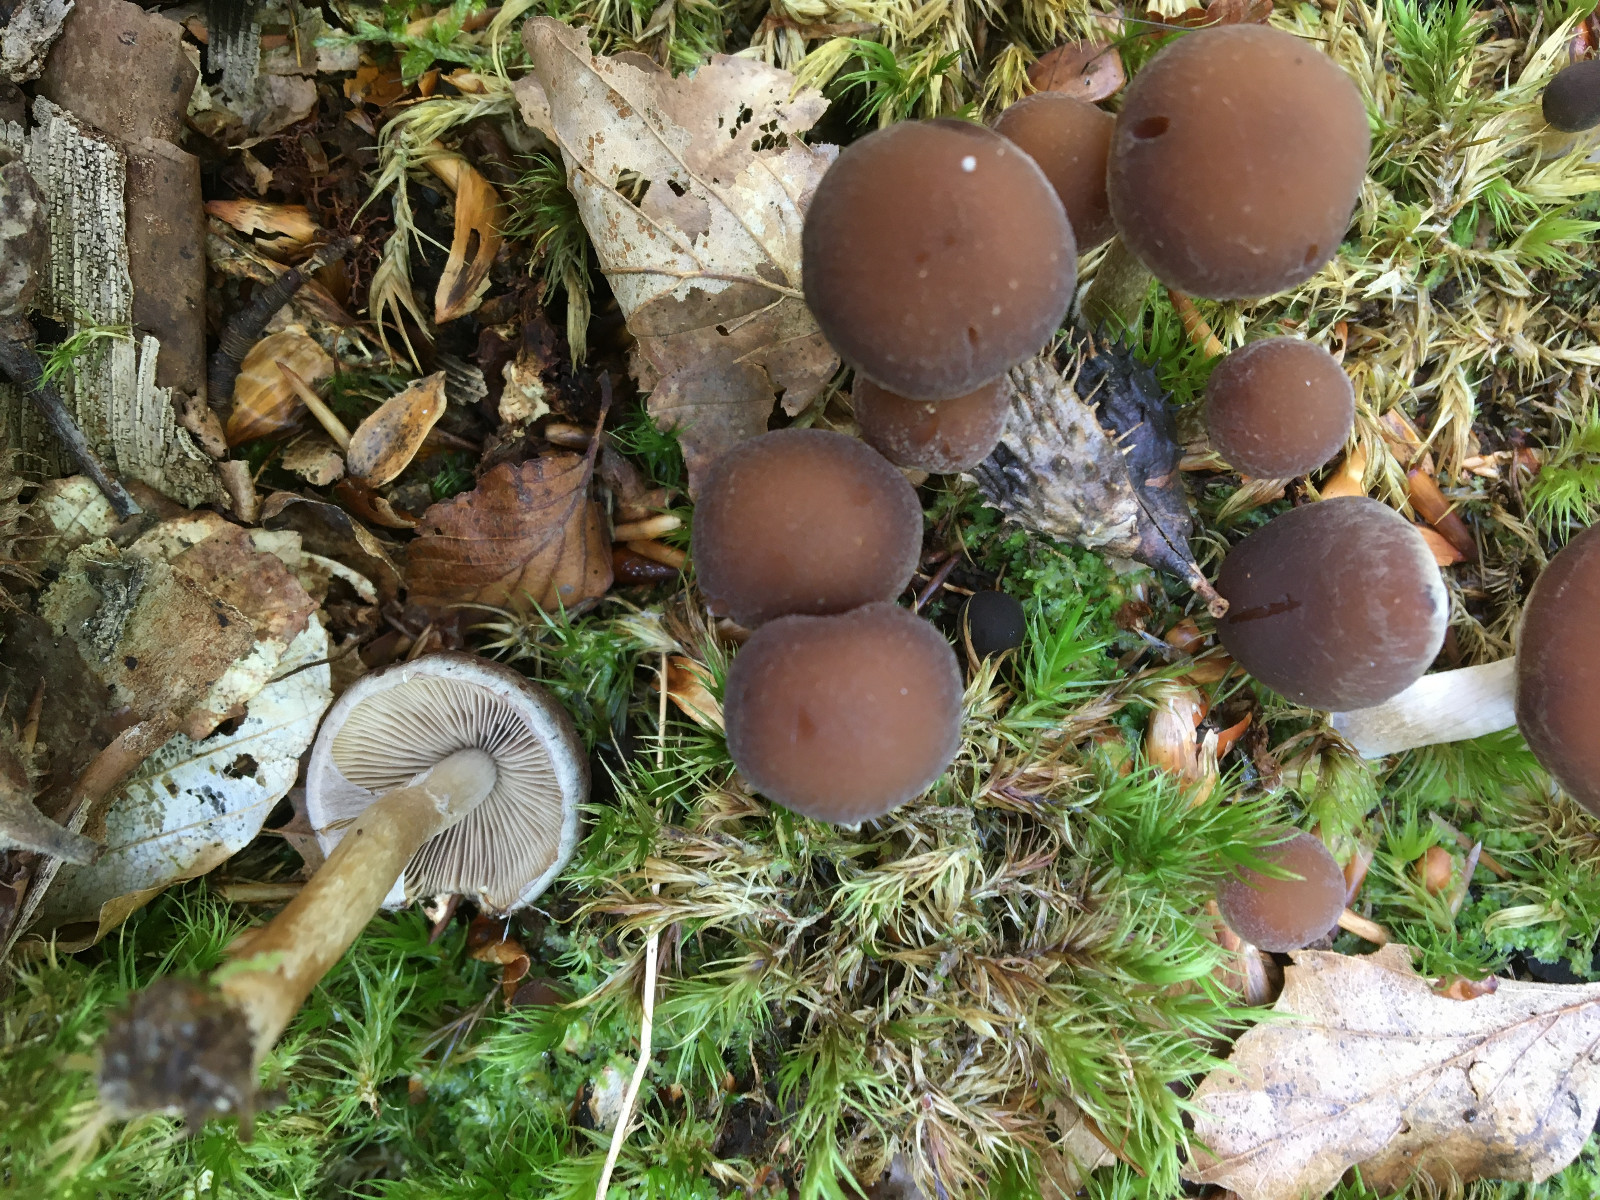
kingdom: Fungi
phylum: Basidiomycota
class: Agaricomycetes
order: Agaricales
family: Psathyrellaceae
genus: Psathyrella
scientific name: Psathyrella piluliformis
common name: lysstokket mørkhat
